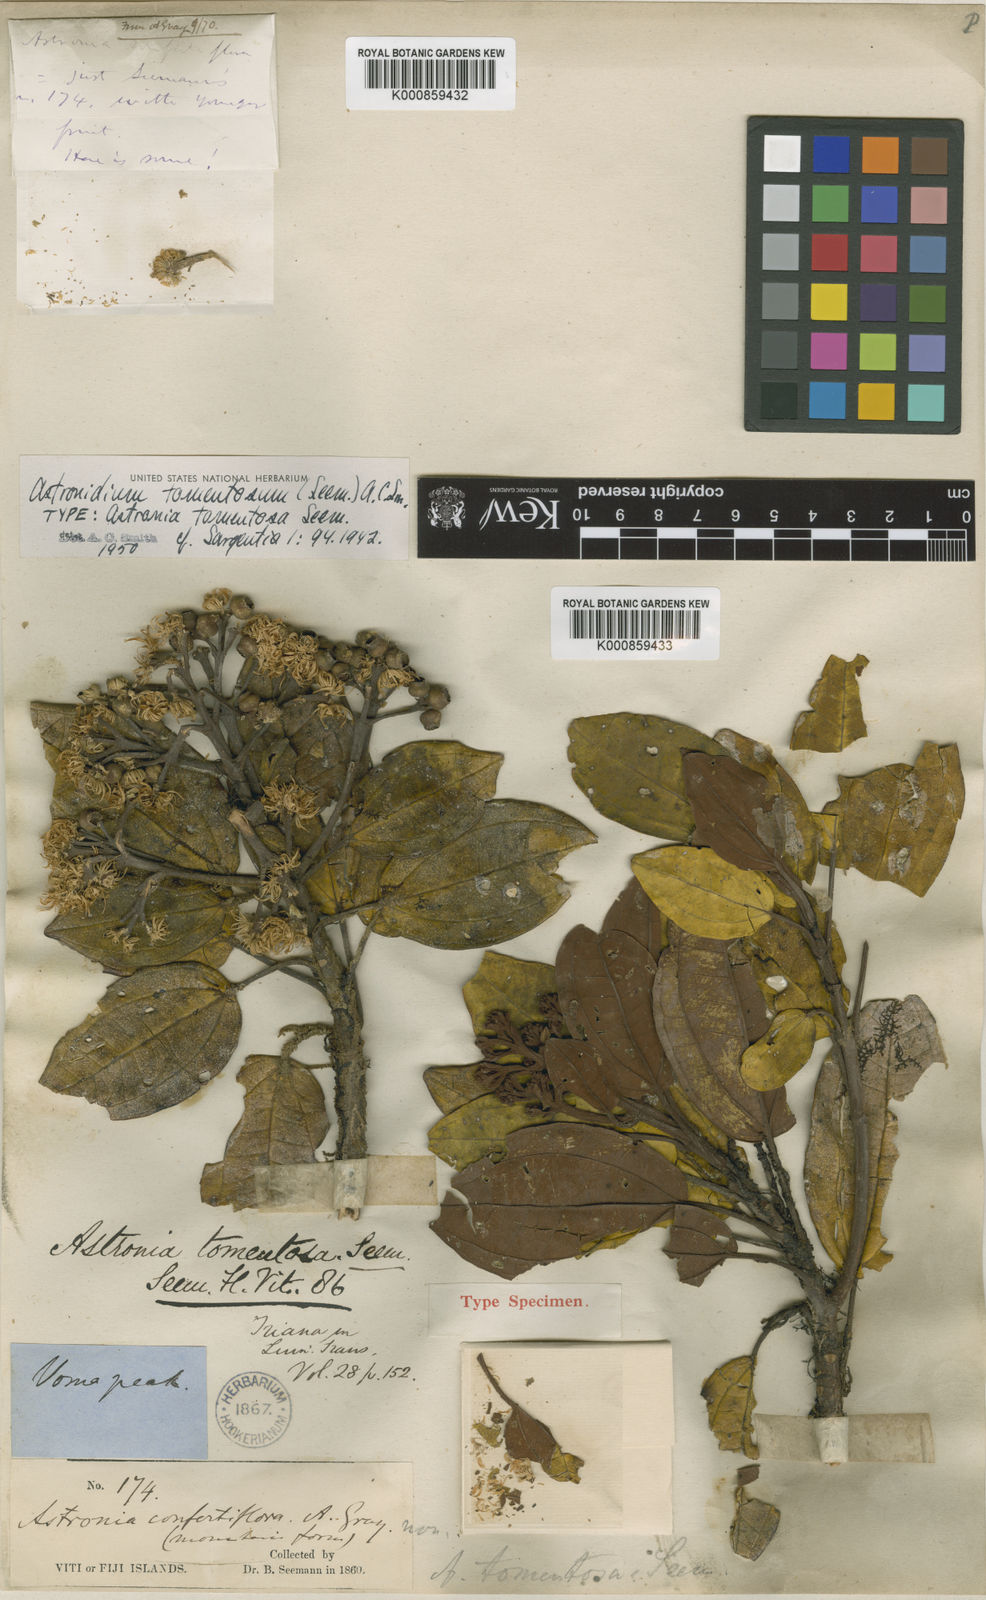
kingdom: Plantae
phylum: Tracheophyta
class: Magnoliopsida
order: Myrtales
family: Melastomataceae
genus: Astronidium
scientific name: Astronidium tomentosum
